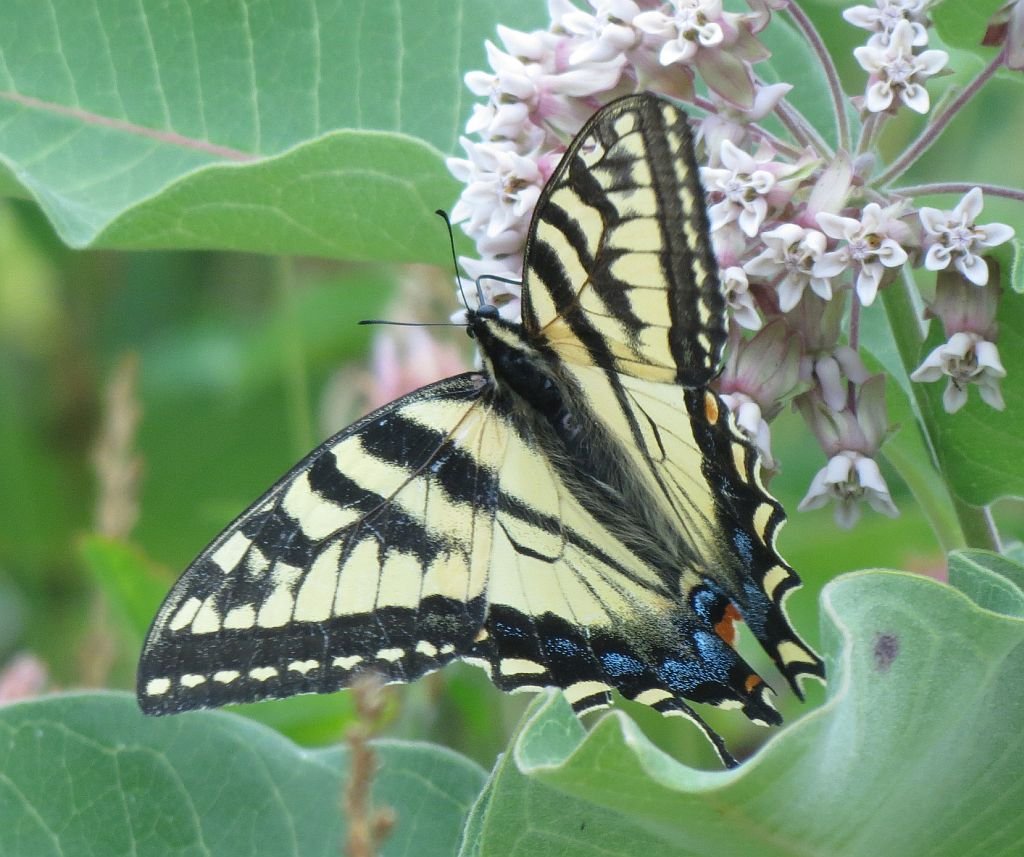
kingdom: Animalia
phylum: Arthropoda
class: Insecta
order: Lepidoptera
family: Papilionidae
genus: Pterourus
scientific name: Pterourus canadensis
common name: Canadian Tiger Swallowtail
